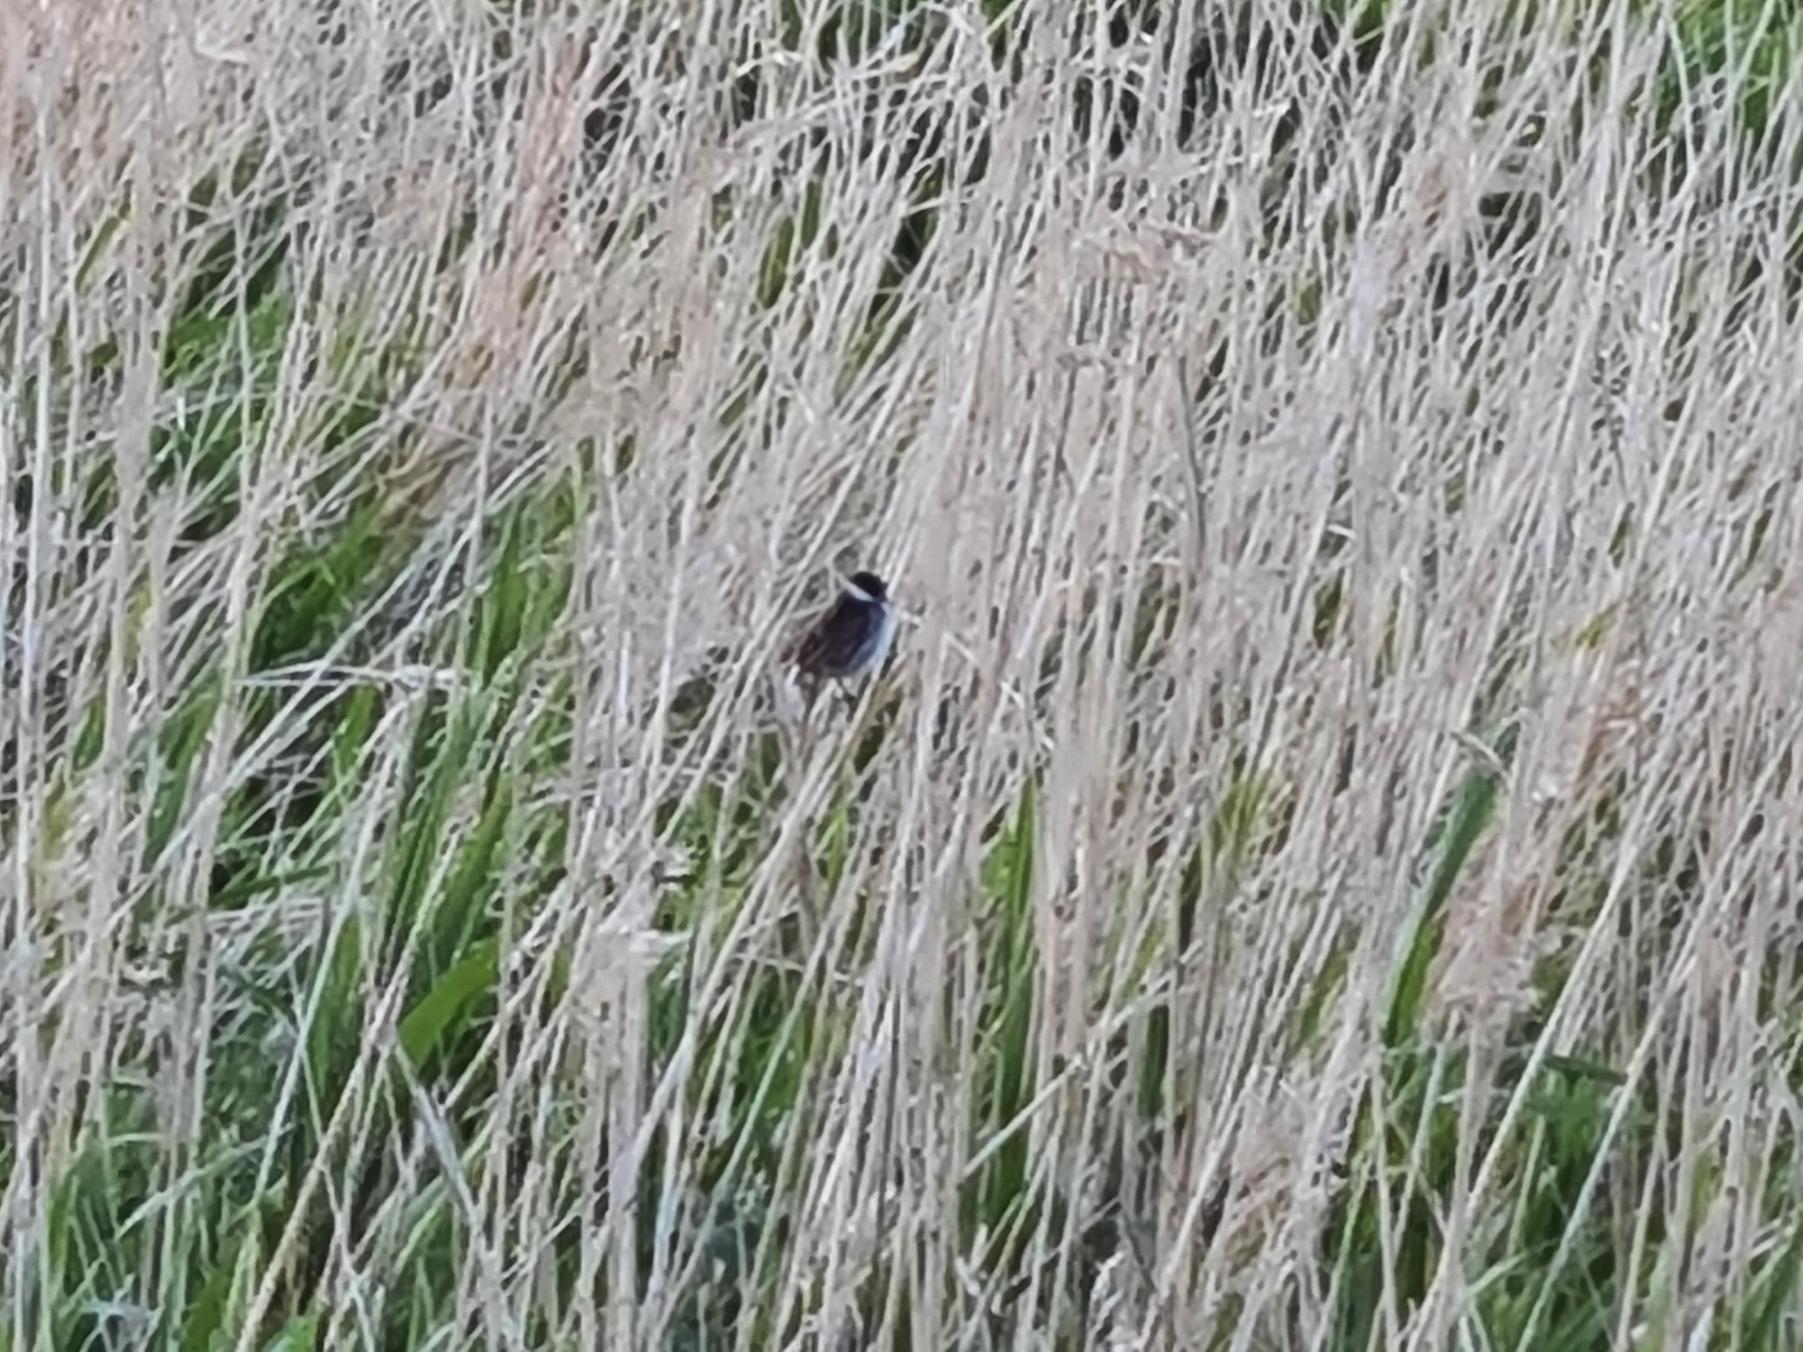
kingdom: Animalia
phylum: Chordata
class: Aves
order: Passeriformes
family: Emberizidae
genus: Emberiza
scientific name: Emberiza schoeniclus
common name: Rørspurv
